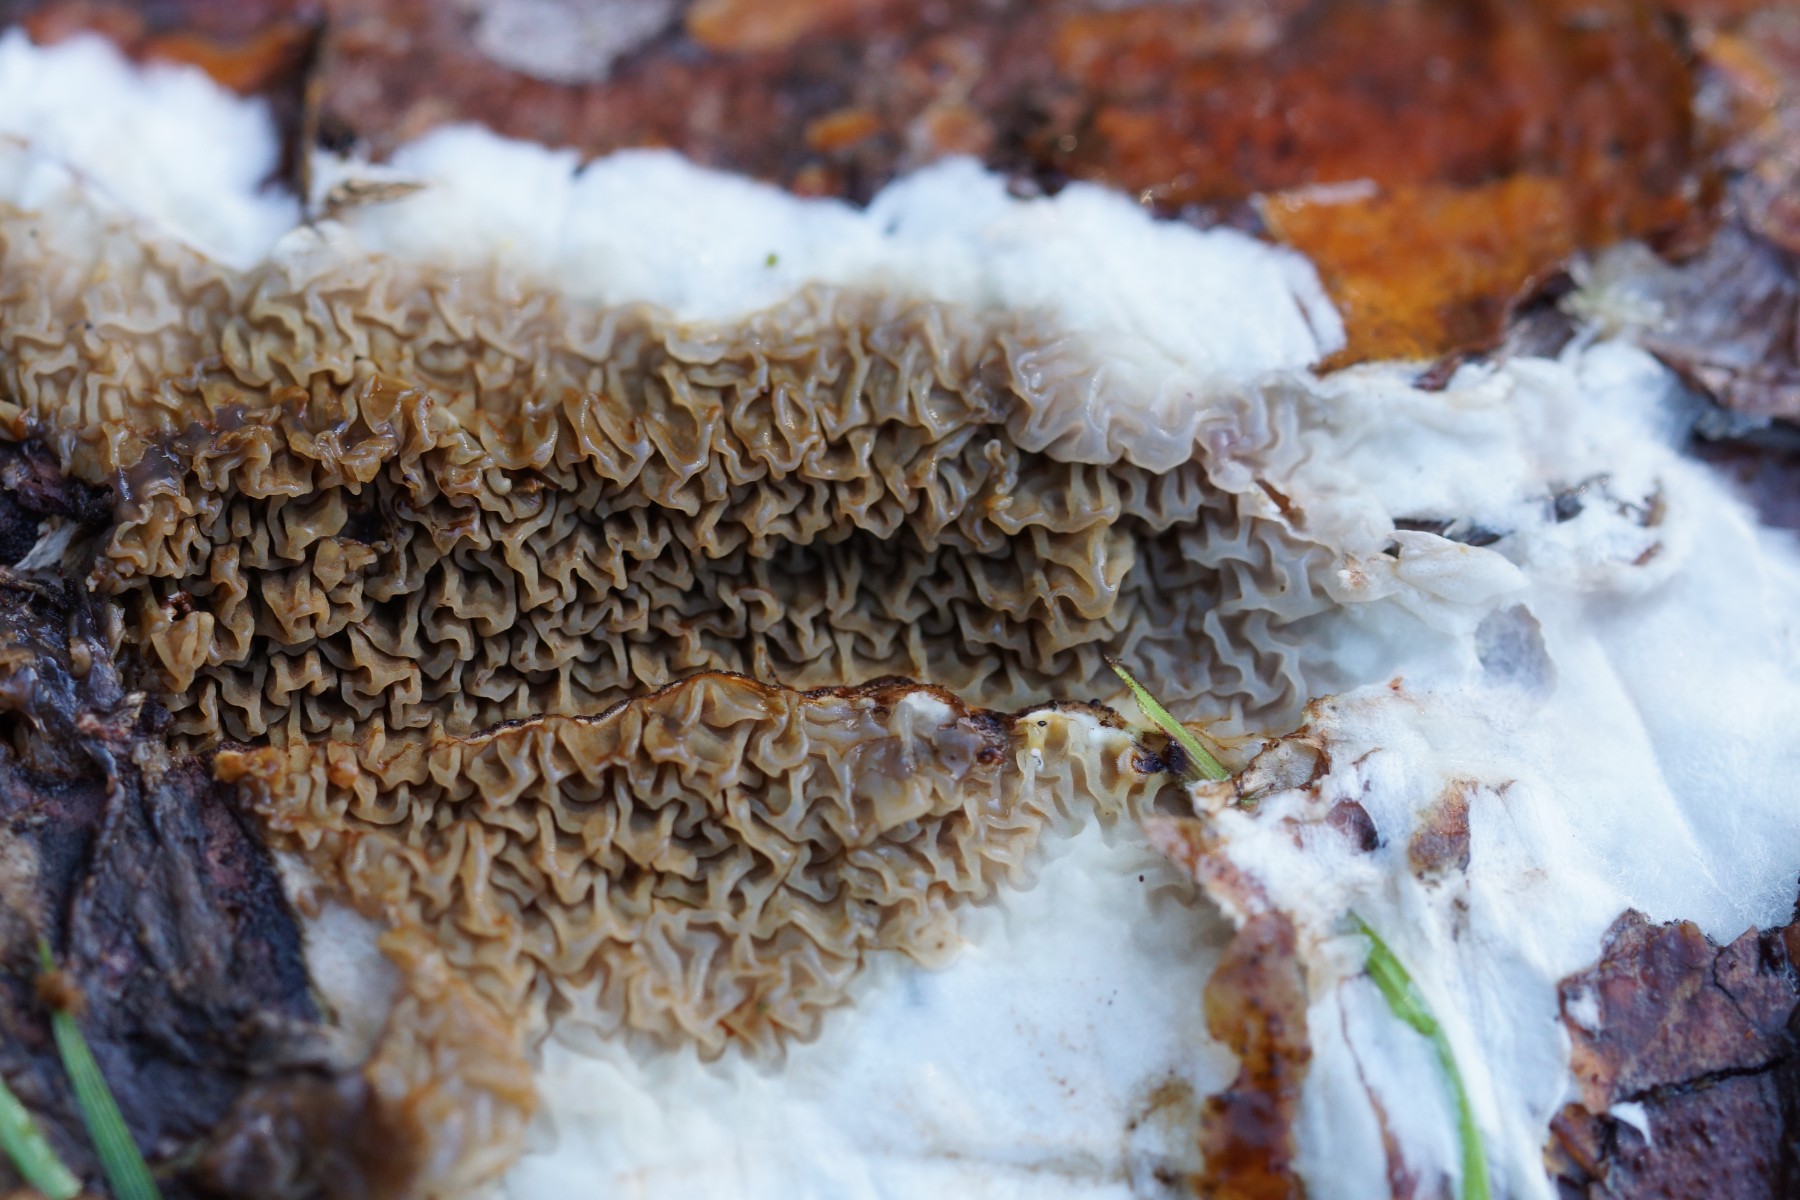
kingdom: Fungi
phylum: Basidiomycota
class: Agaricomycetes
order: Boletales
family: Serpulaceae
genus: Serpula
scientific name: Serpula himantioides
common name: tyndkødet hussvamp
